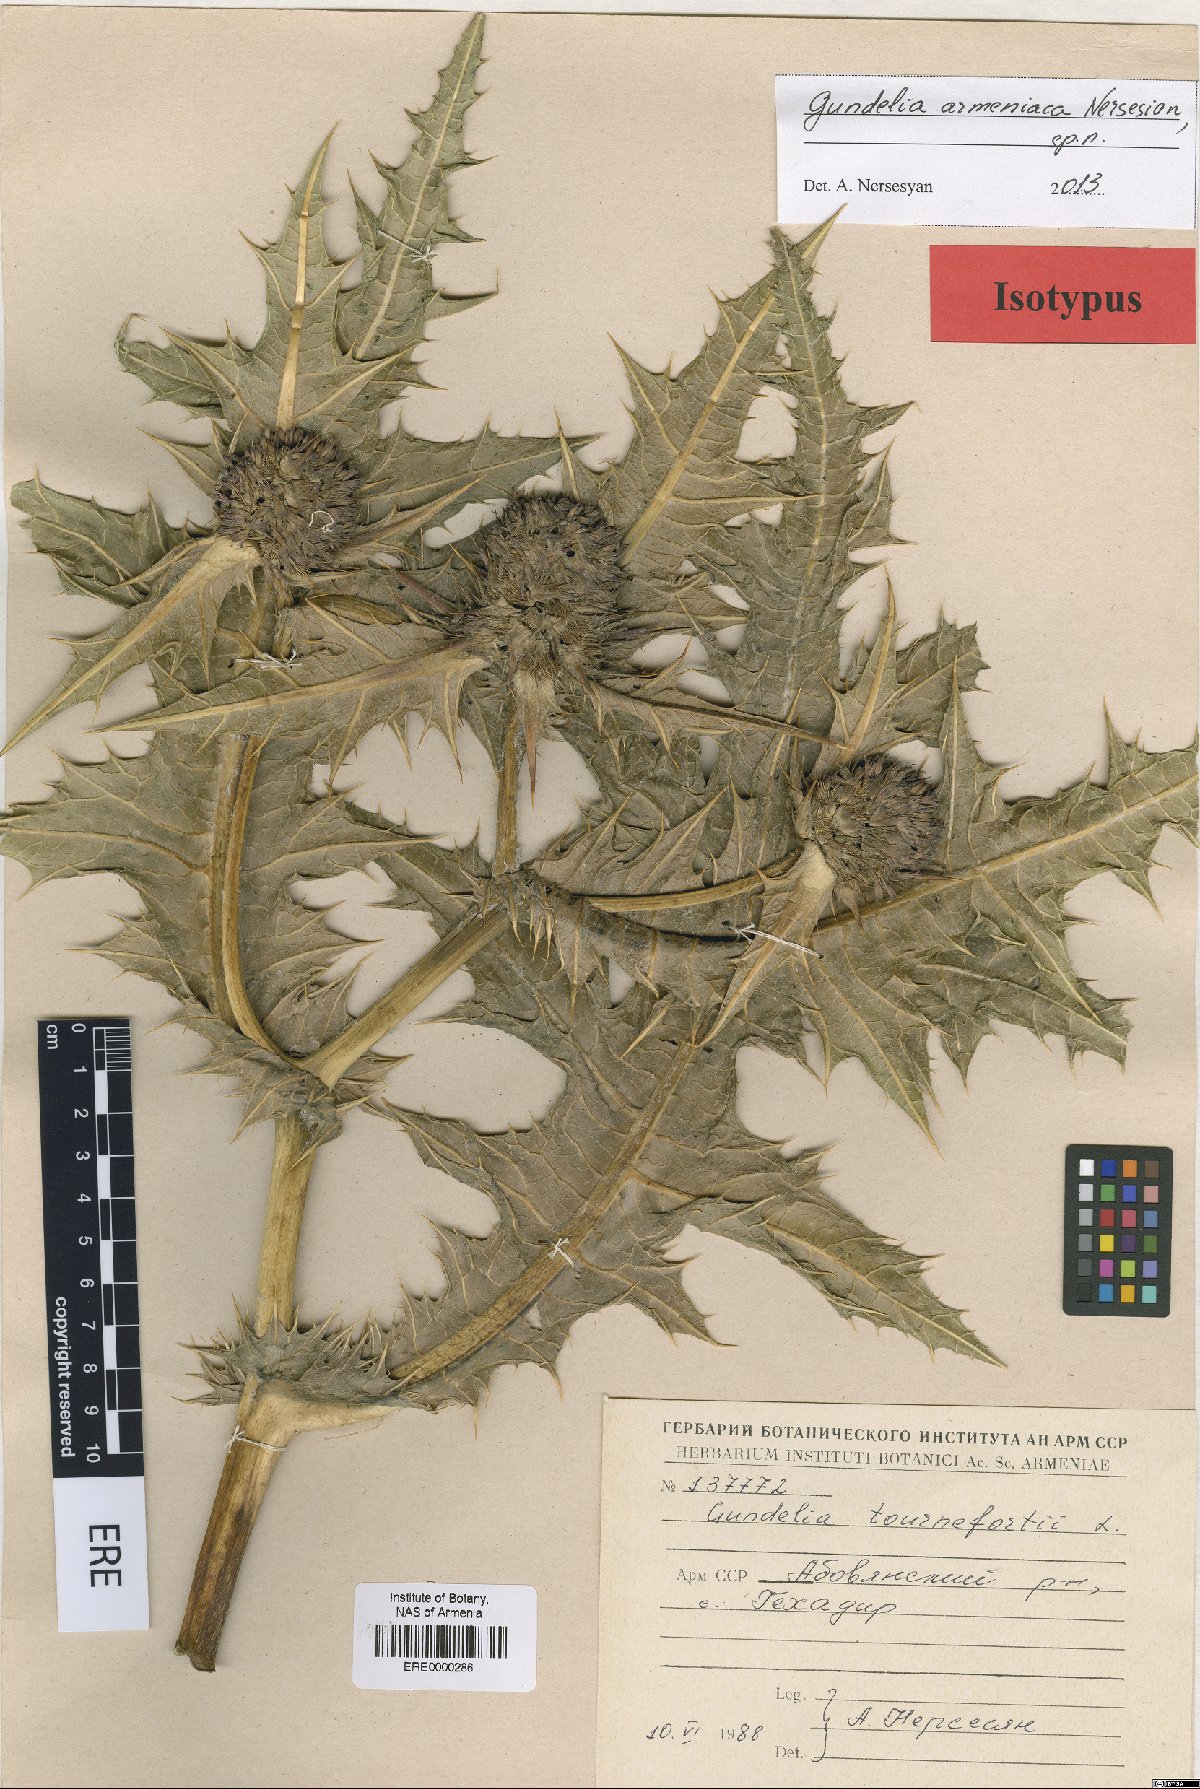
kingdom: Plantae
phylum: Tracheophyta
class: Magnoliopsida
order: Asterales
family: Asteraceae
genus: Gundelia
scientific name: Gundelia armeniaca
